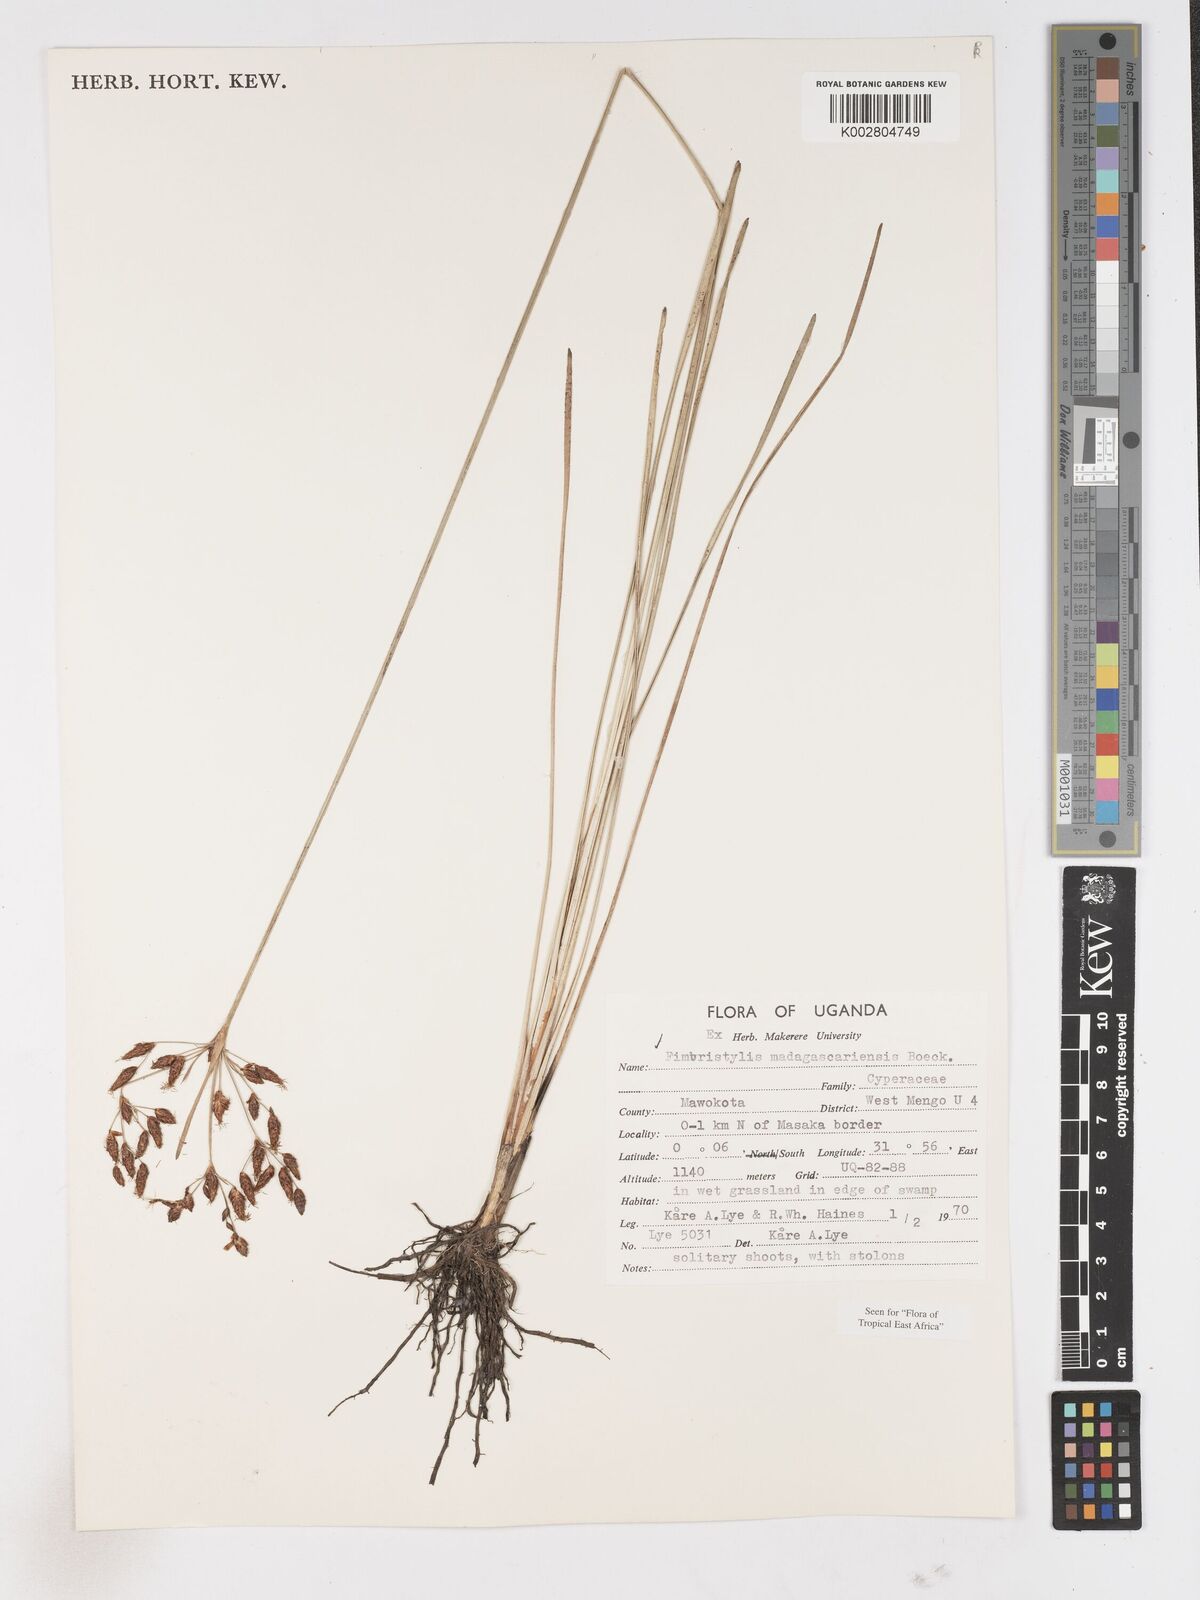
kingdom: Plantae
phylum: Tracheophyta
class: Liliopsida
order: Poales
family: Cyperaceae
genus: Fimbristylis
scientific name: Fimbristylis madagascariensis
